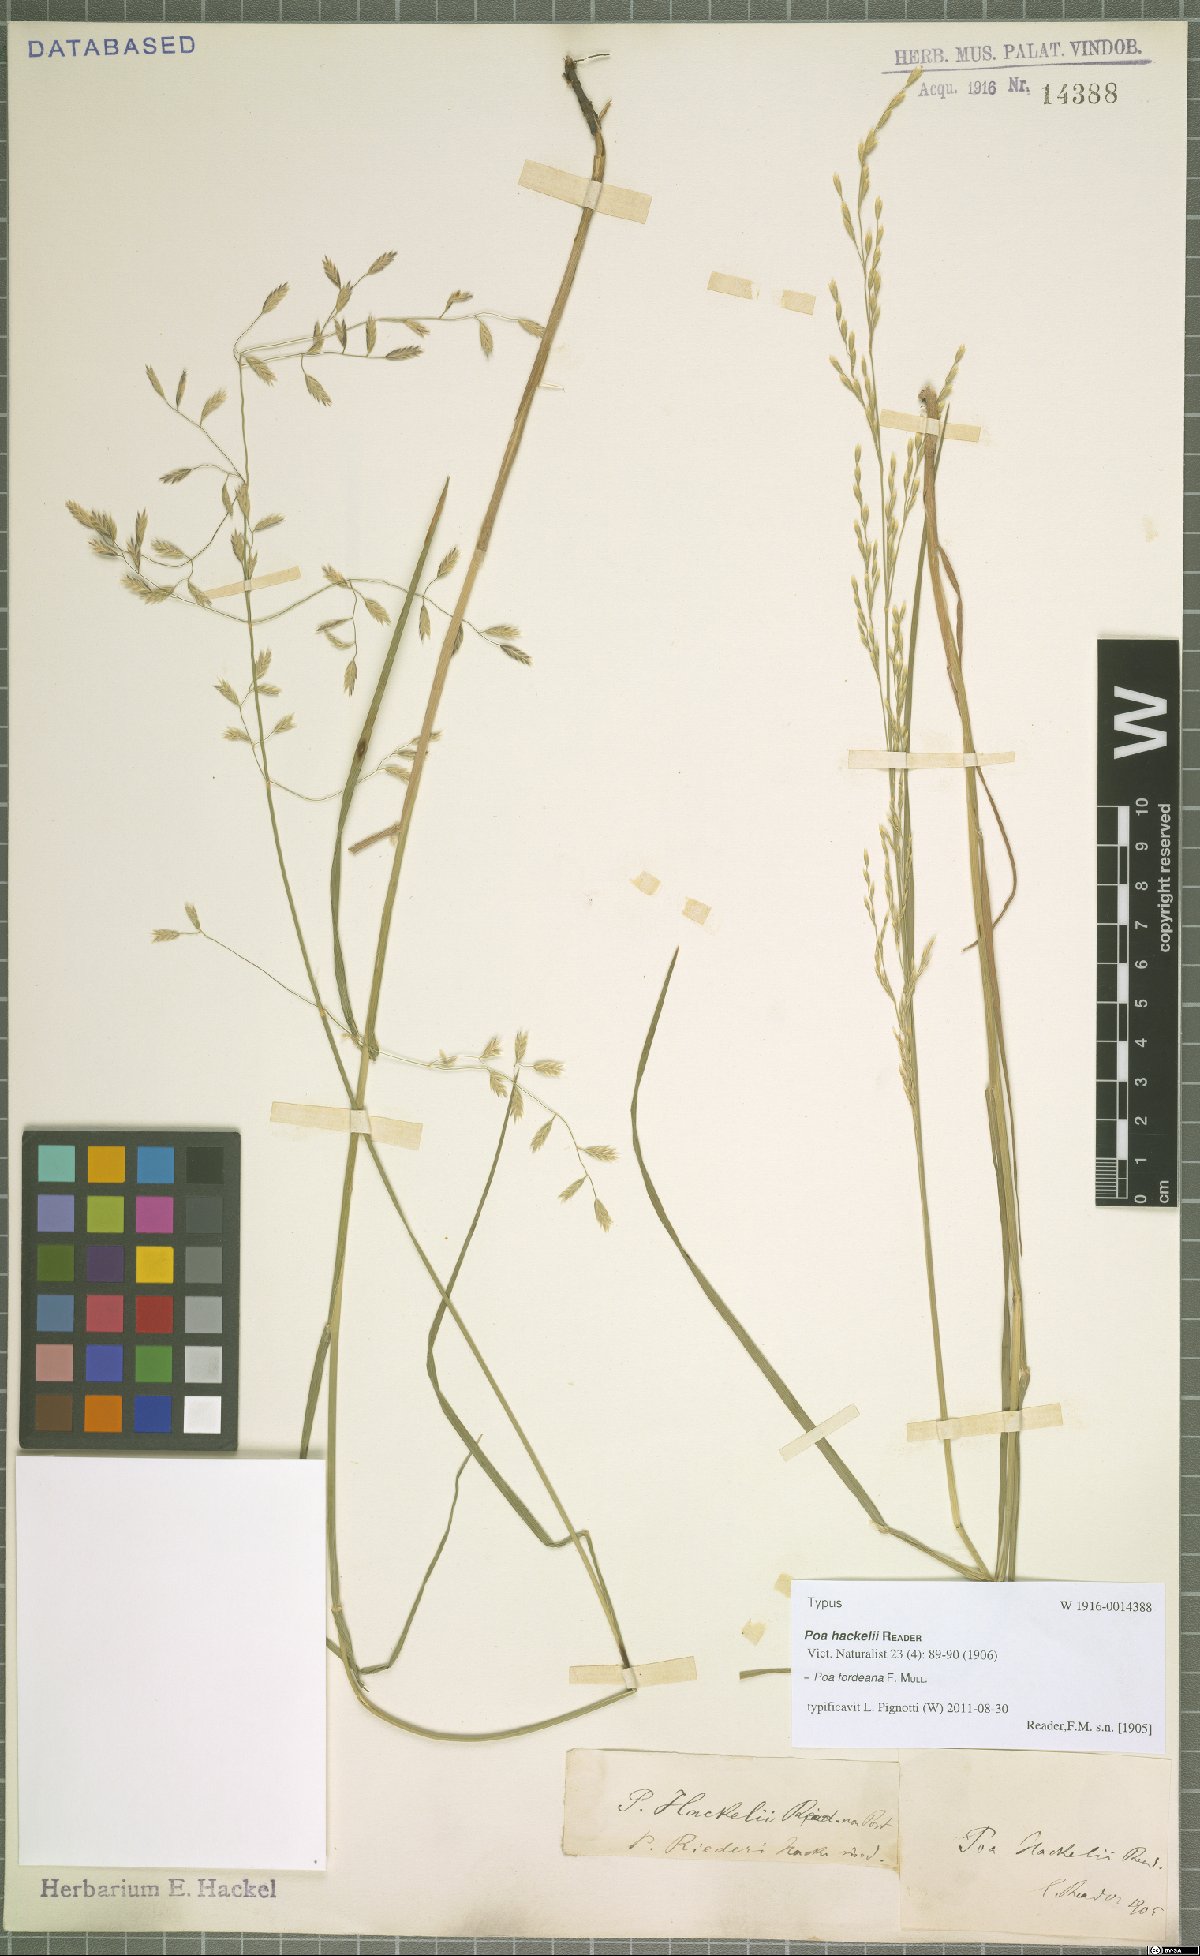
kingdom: Plantae
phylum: Tracheophyta
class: Liliopsida
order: Poales
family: Poaceae
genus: Poa
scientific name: Poa fordeana
